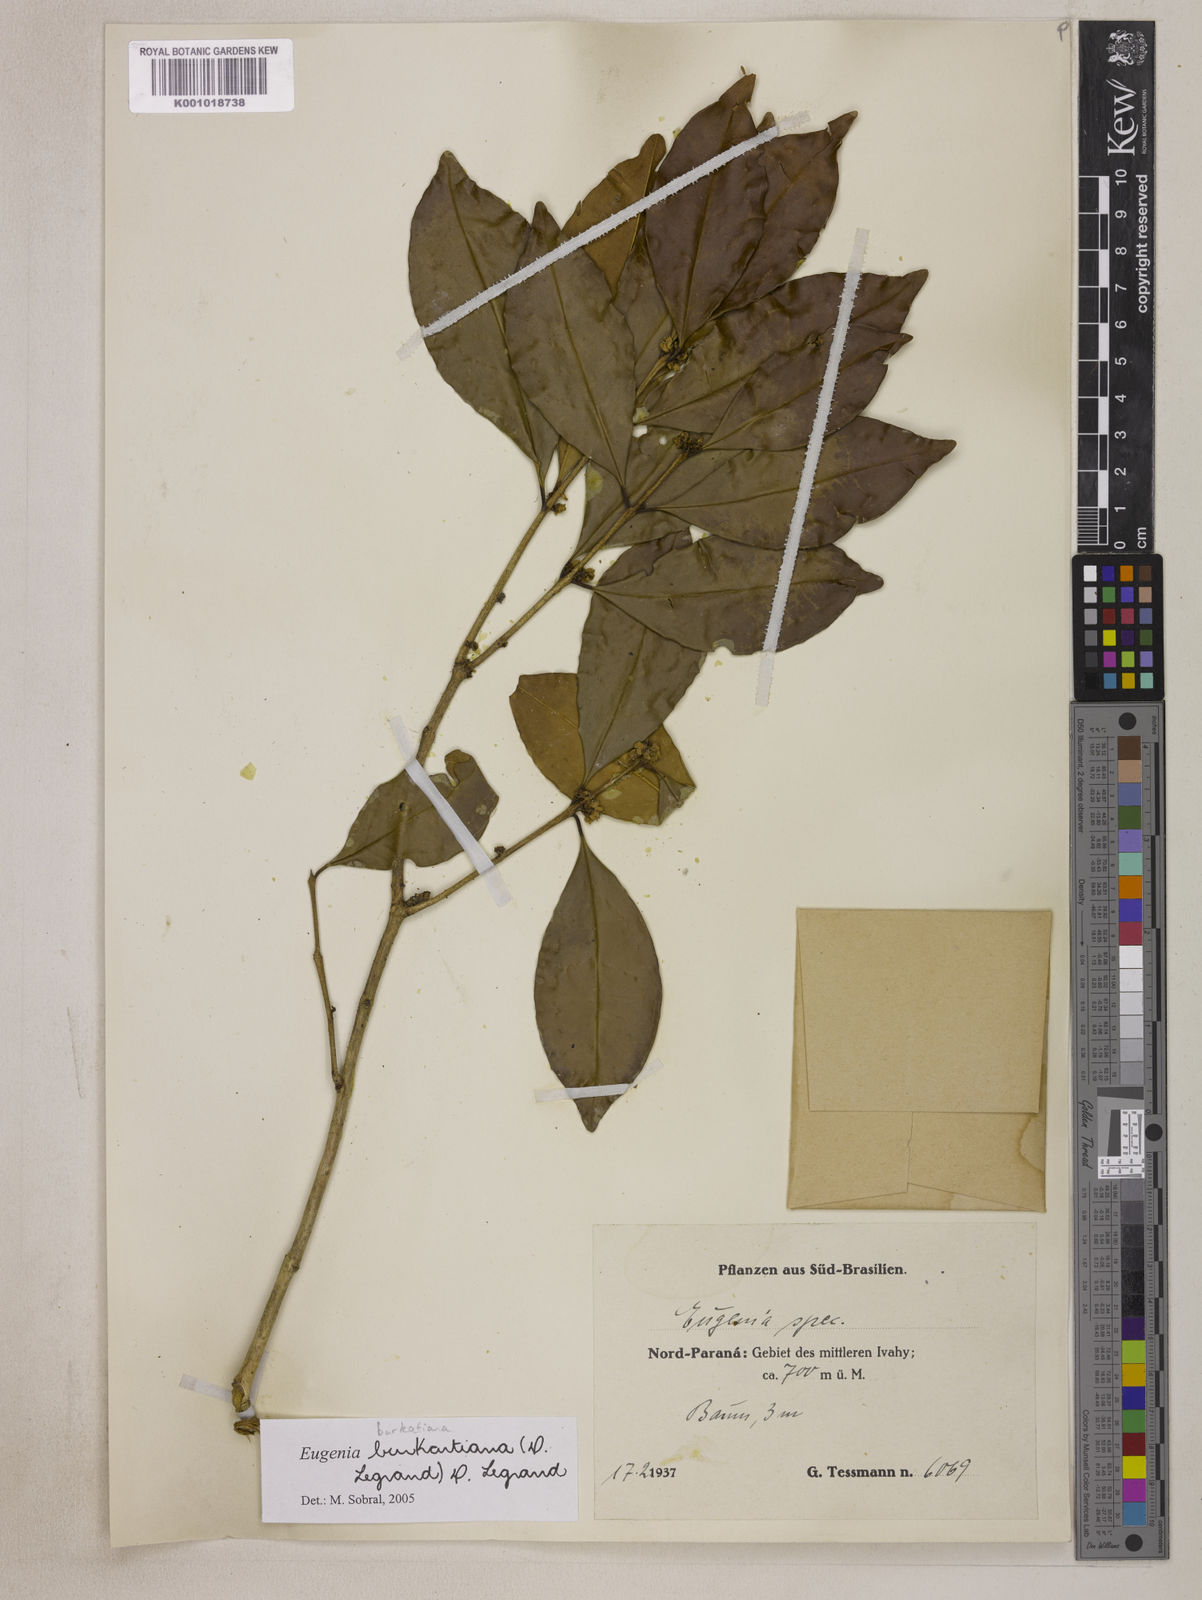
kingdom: Plantae
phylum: Tracheophyta
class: Magnoliopsida
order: Myrtales
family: Myrtaceae
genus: Eugenia
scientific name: Eugenia burkartiana
